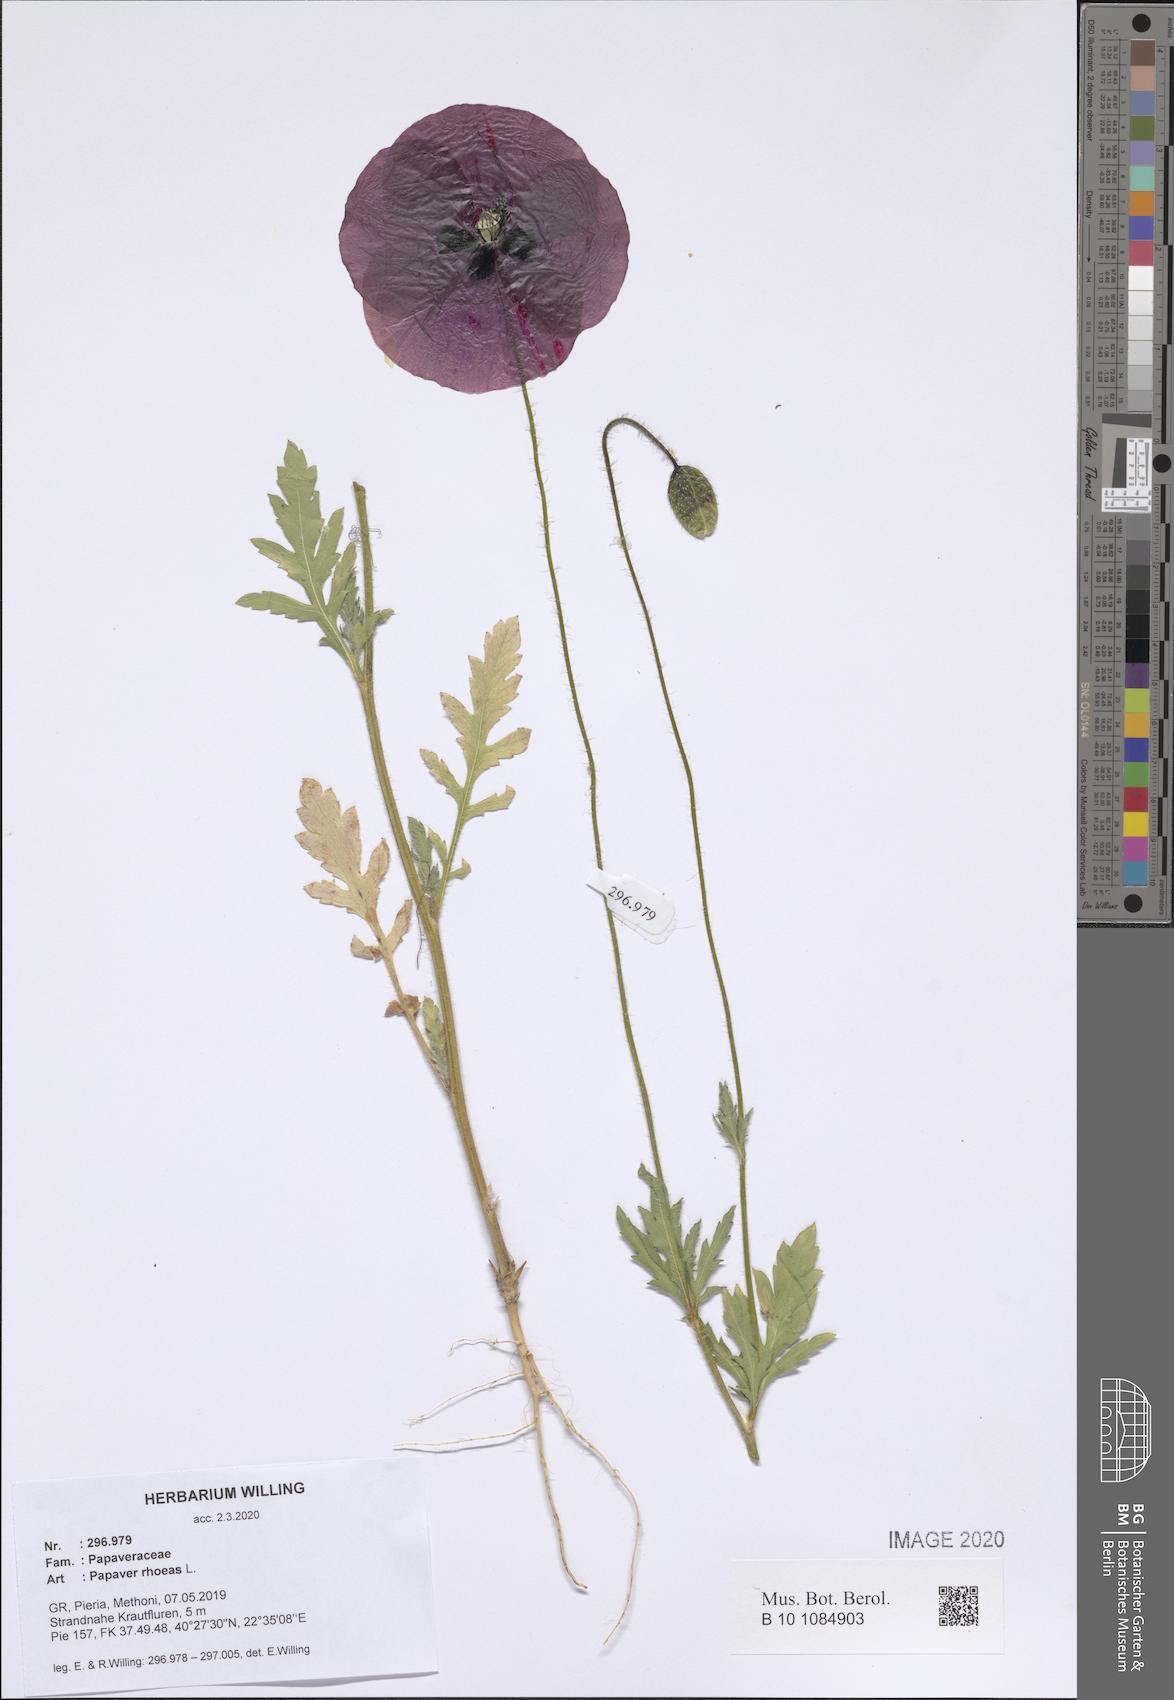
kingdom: Plantae
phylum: Tracheophyta
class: Magnoliopsida
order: Ranunculales
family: Papaveraceae
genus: Papaver
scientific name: Papaver rhoeas
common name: Corn poppy
